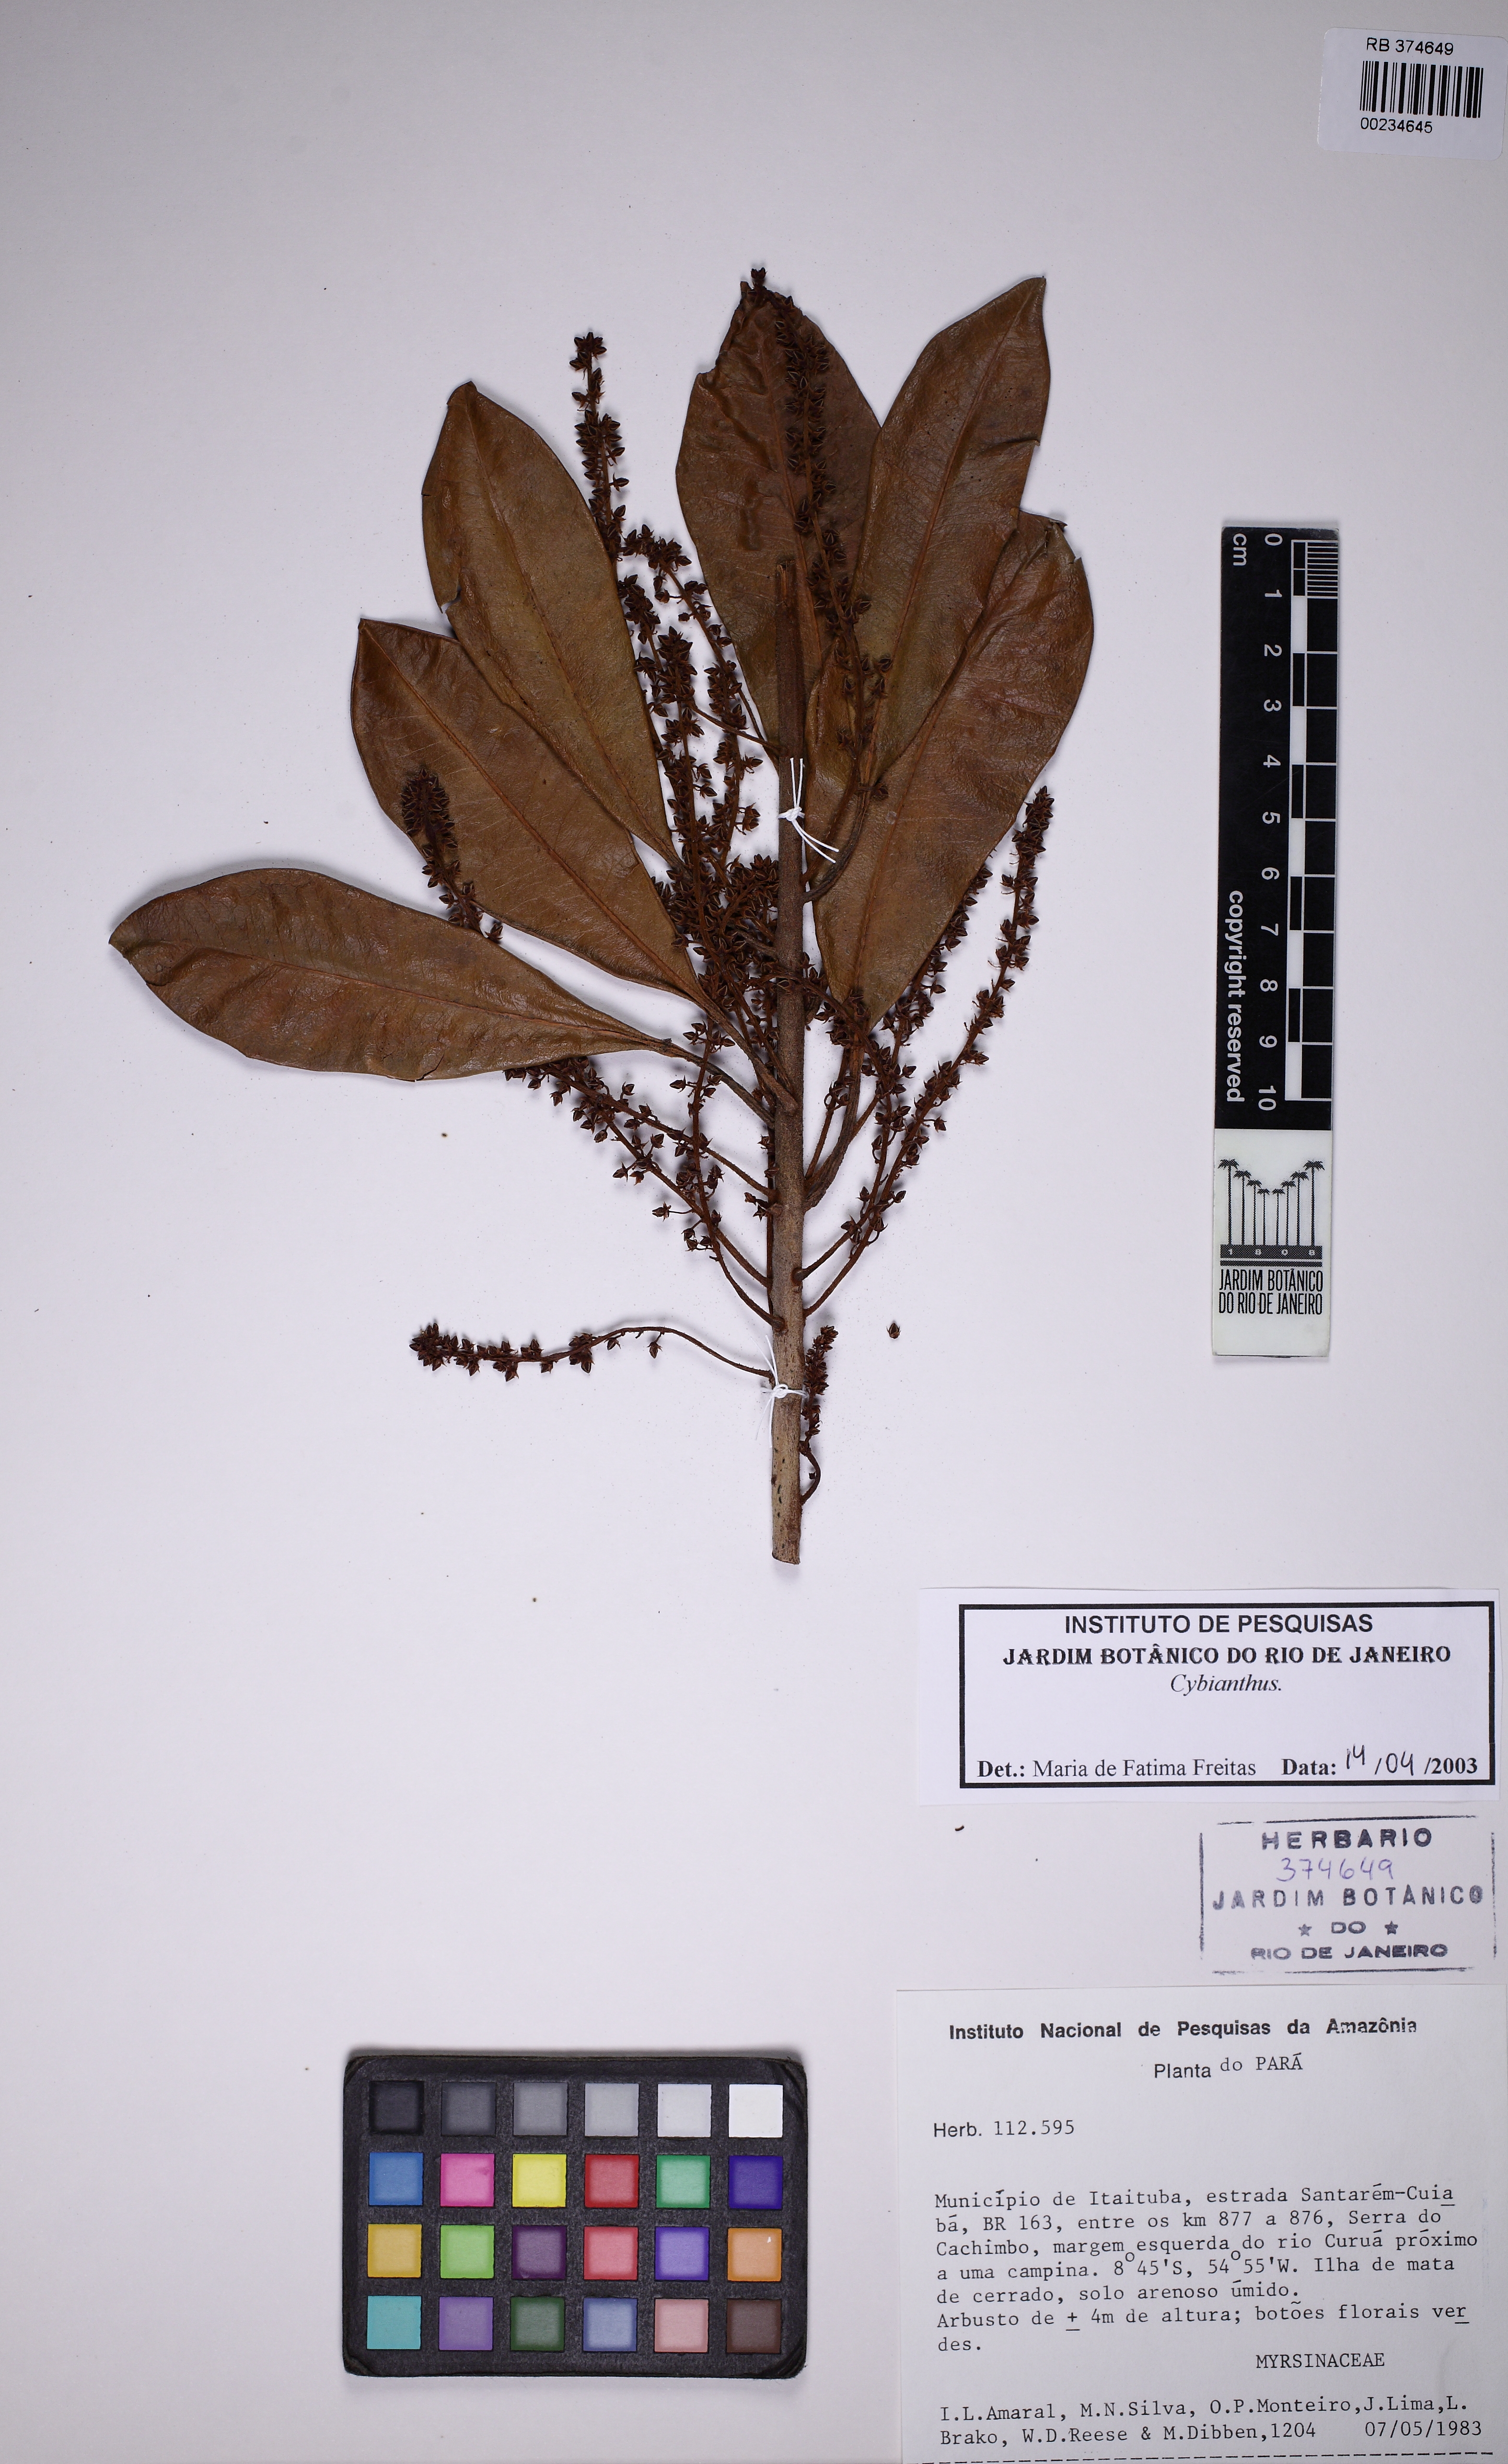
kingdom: Plantae
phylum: Tracheophyta
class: Magnoliopsida
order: Ericales
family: Primulaceae
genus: Cybianthus
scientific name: Cybianthus
